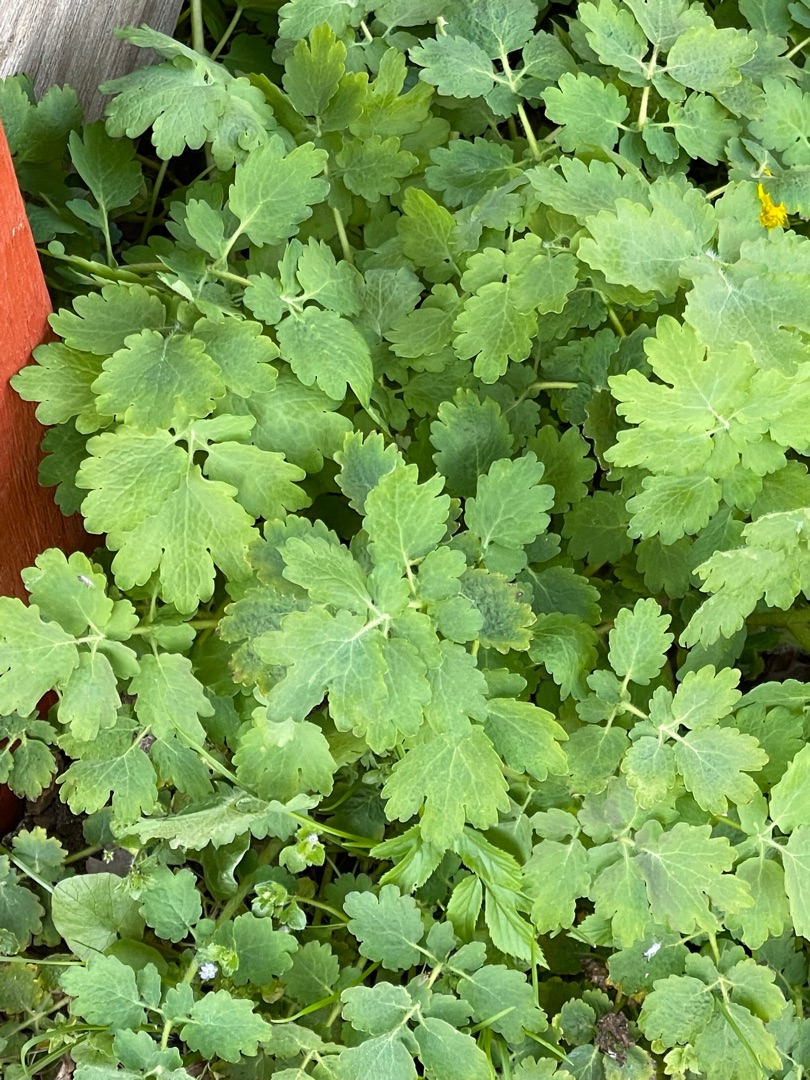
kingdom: Plantae
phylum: Tracheophyta
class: Magnoliopsida
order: Ranunculales
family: Papaveraceae
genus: Chelidonium
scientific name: Chelidonium majus
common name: Svaleurt
